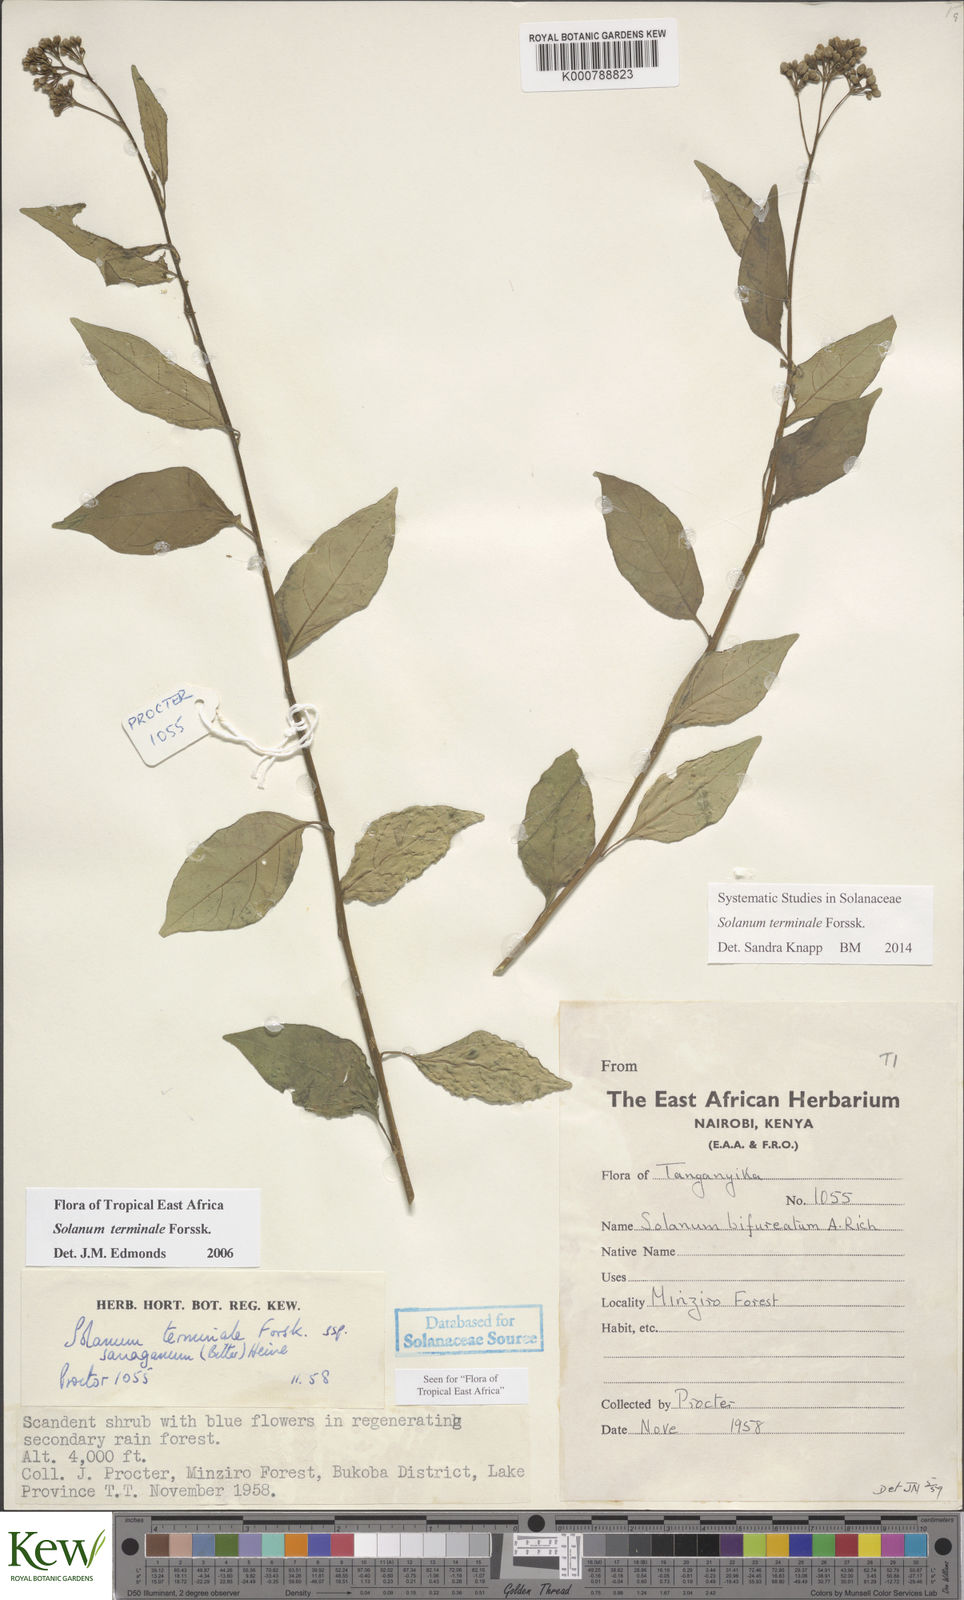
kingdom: Plantae
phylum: Tracheophyta
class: Magnoliopsida
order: Solanales
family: Solanaceae
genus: Solanum
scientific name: Solanum terminale
